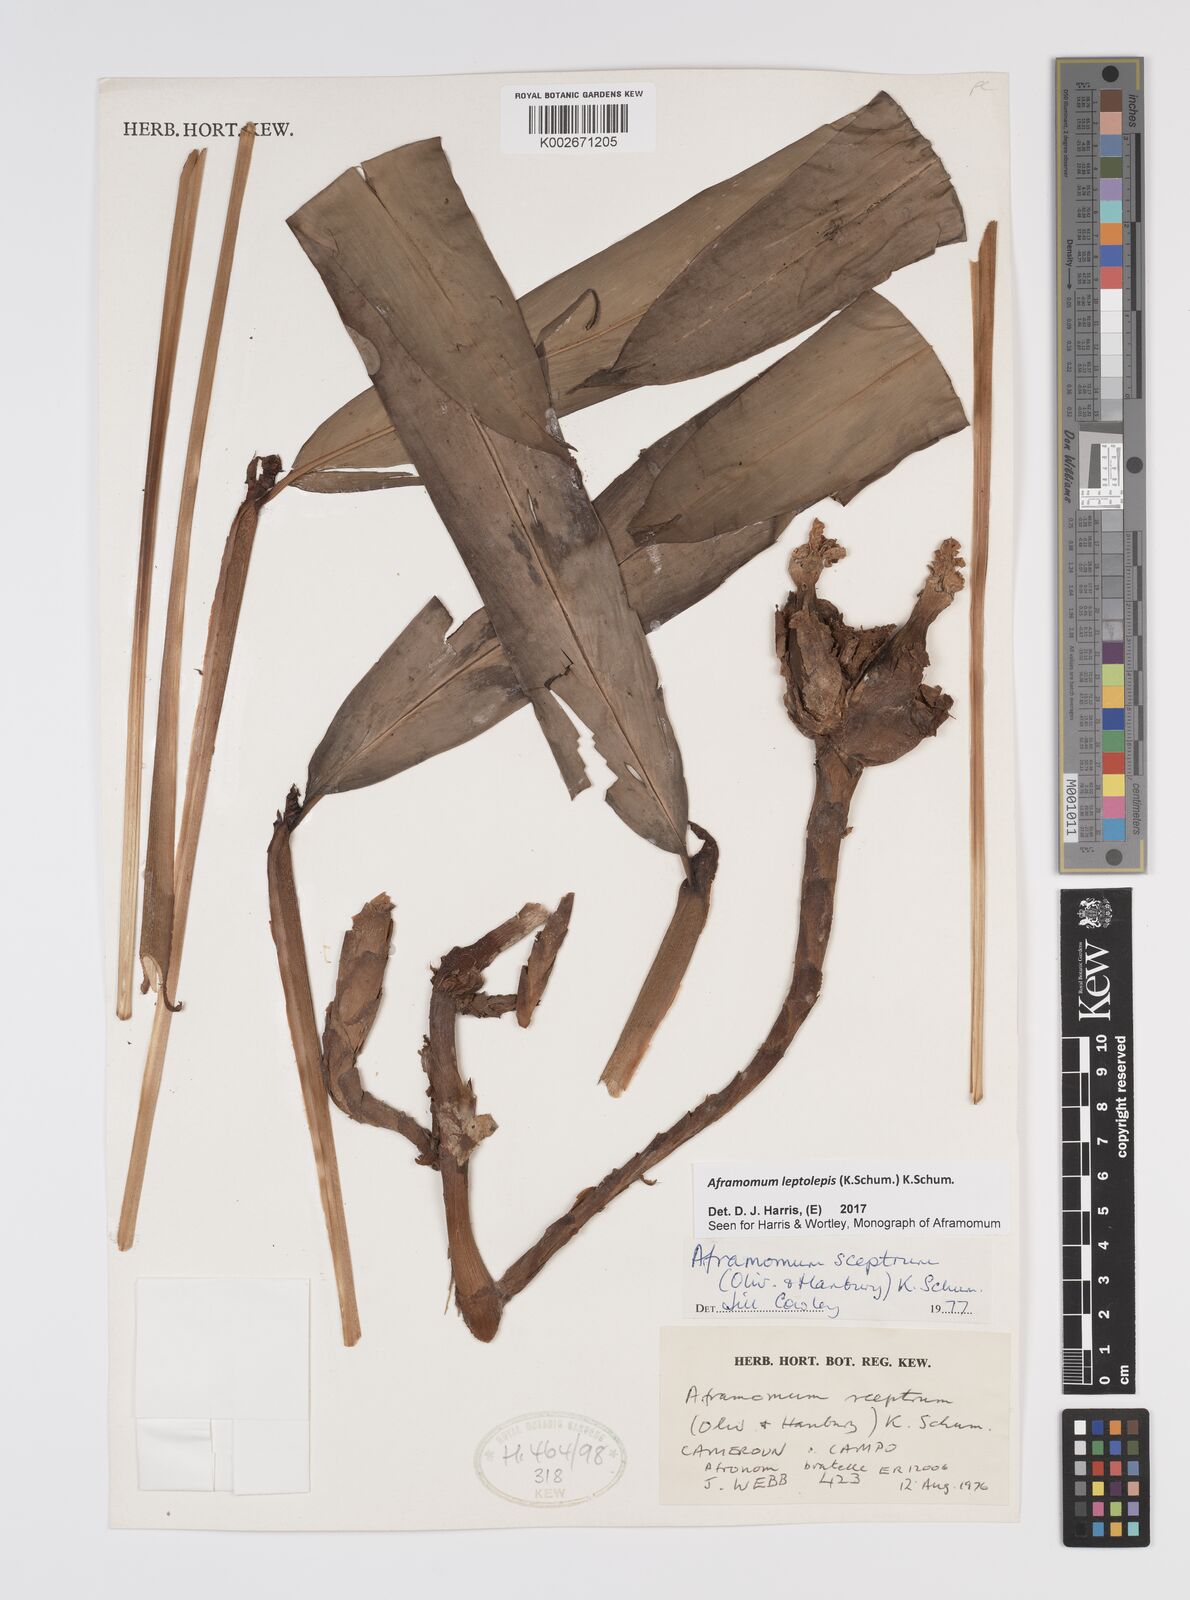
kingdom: Plantae
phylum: Tracheophyta
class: Liliopsida
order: Zingiberales
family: Zingiberaceae
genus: Aframomum
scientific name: Aframomum leptolepis
